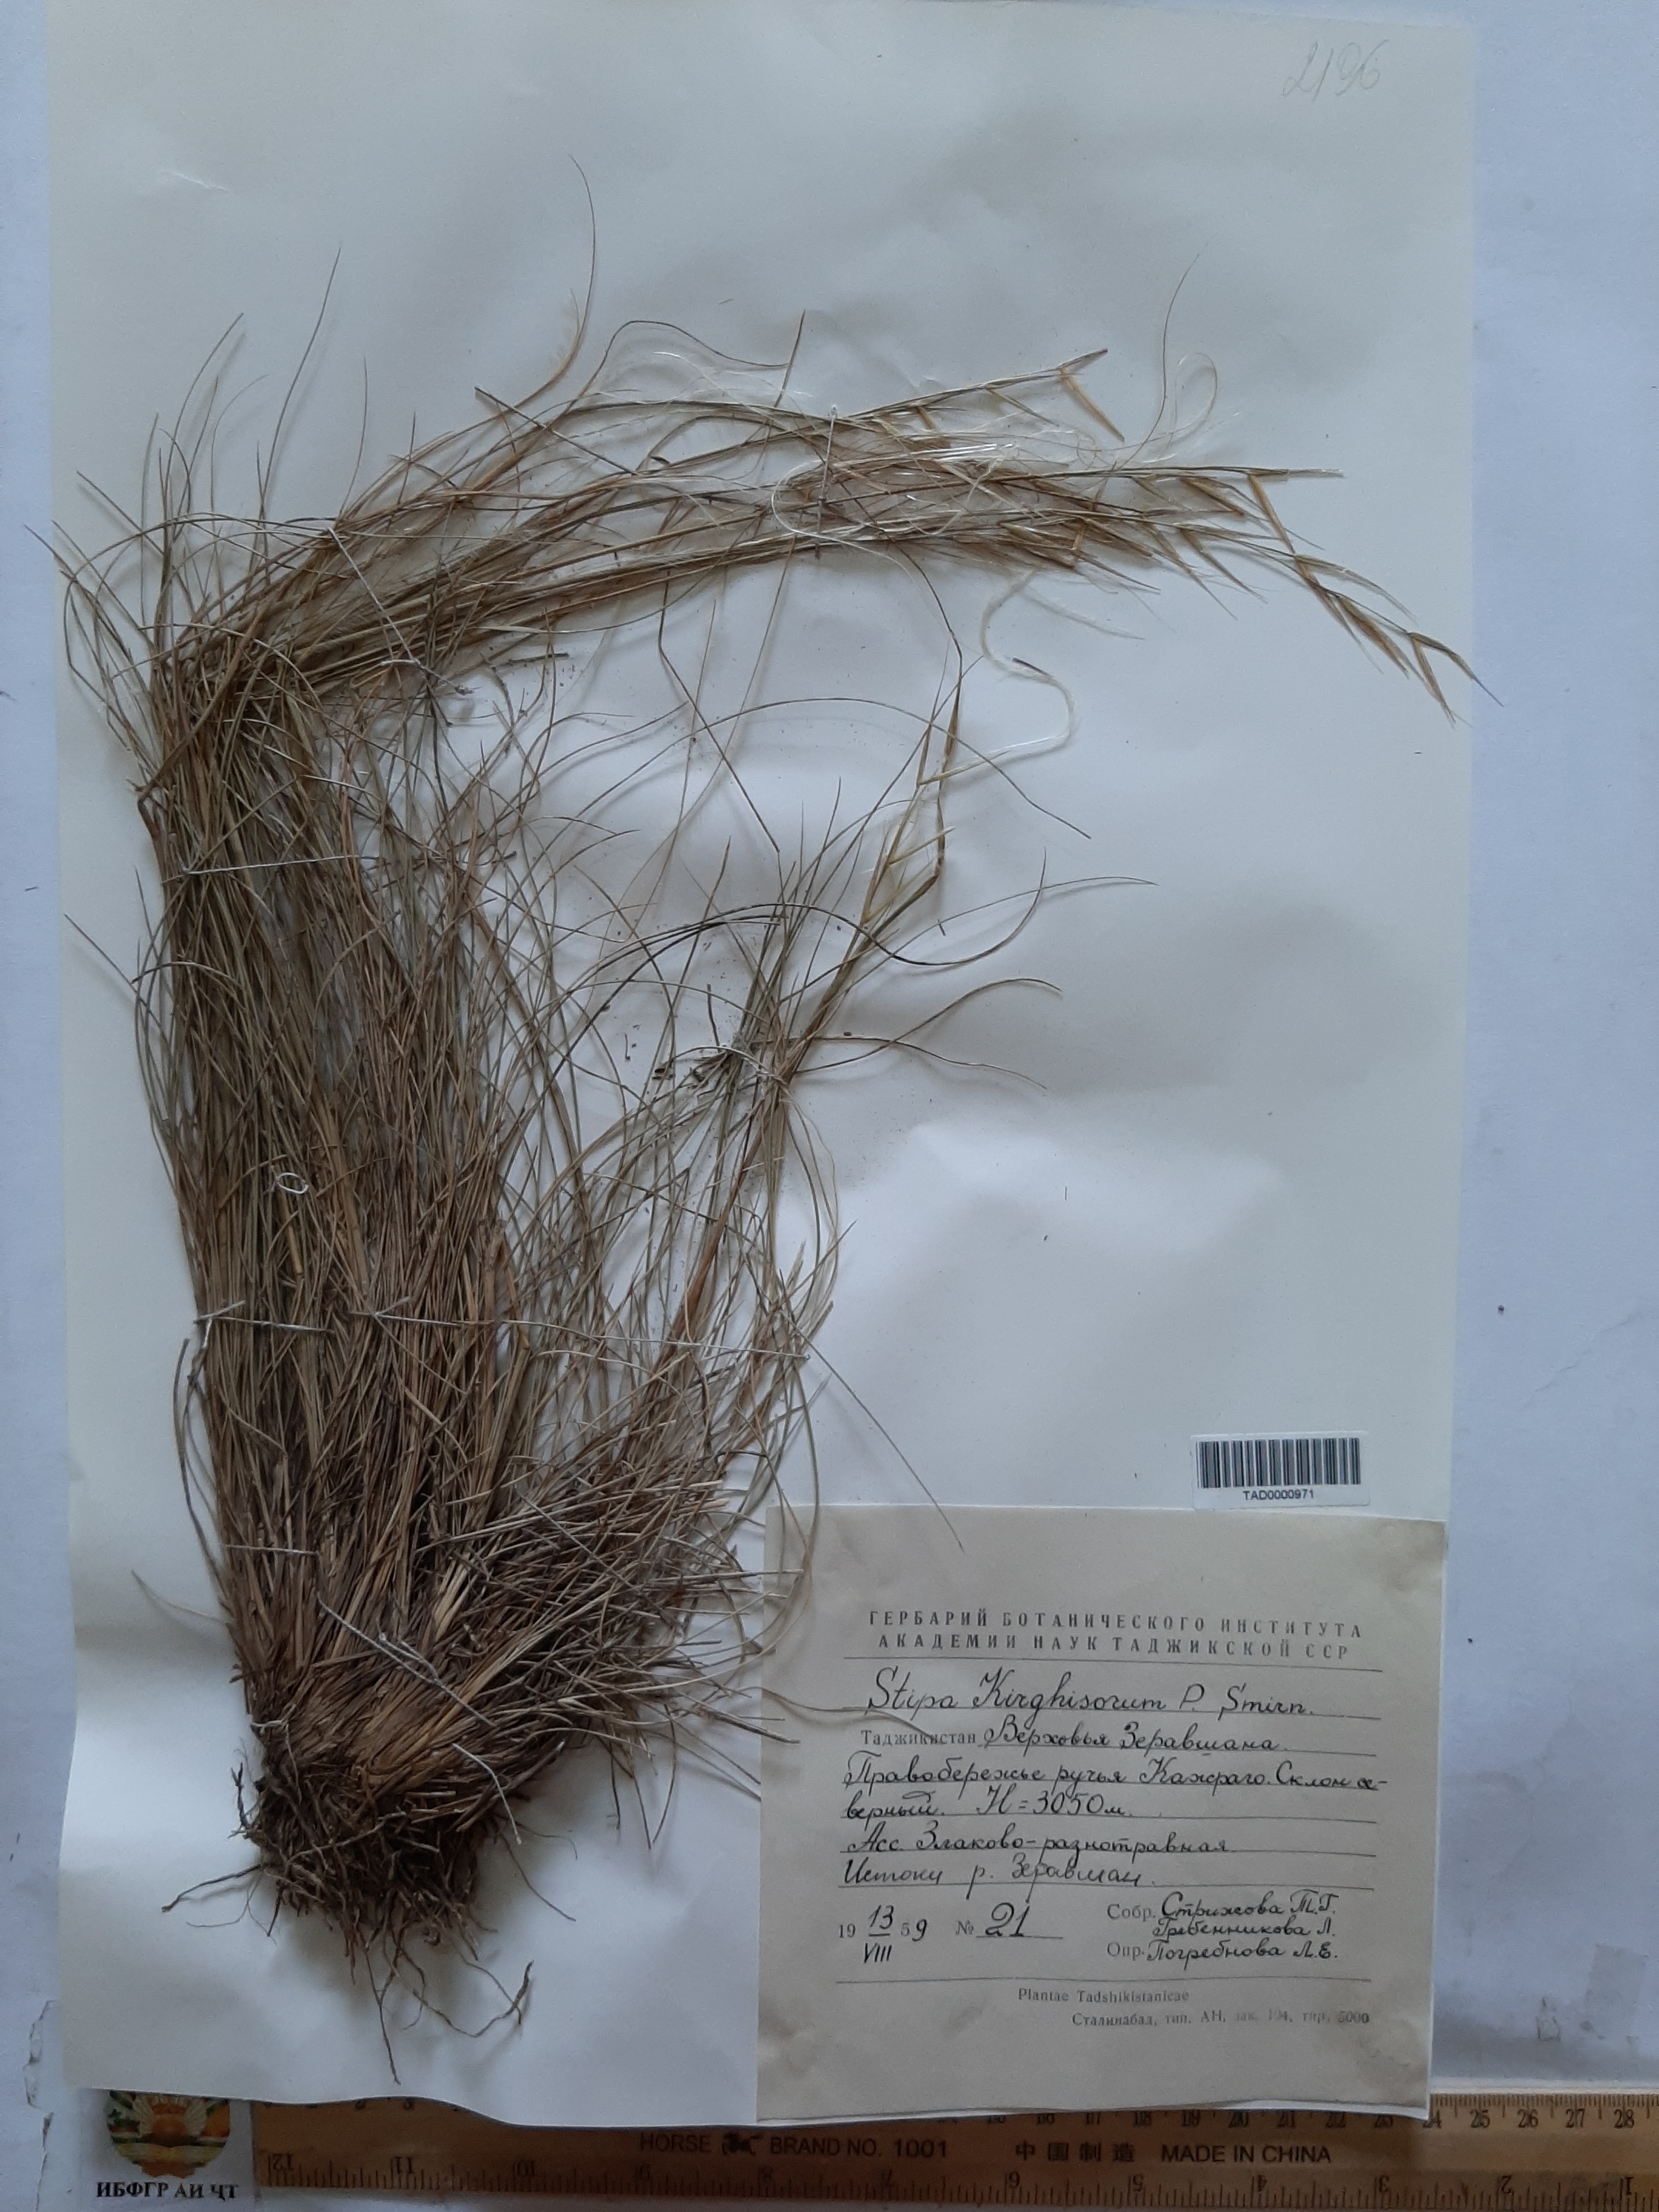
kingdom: Plantae
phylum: Tracheophyta
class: Liliopsida
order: Poales
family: Poaceae
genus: Stipa
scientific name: Stipa kirghisorum
